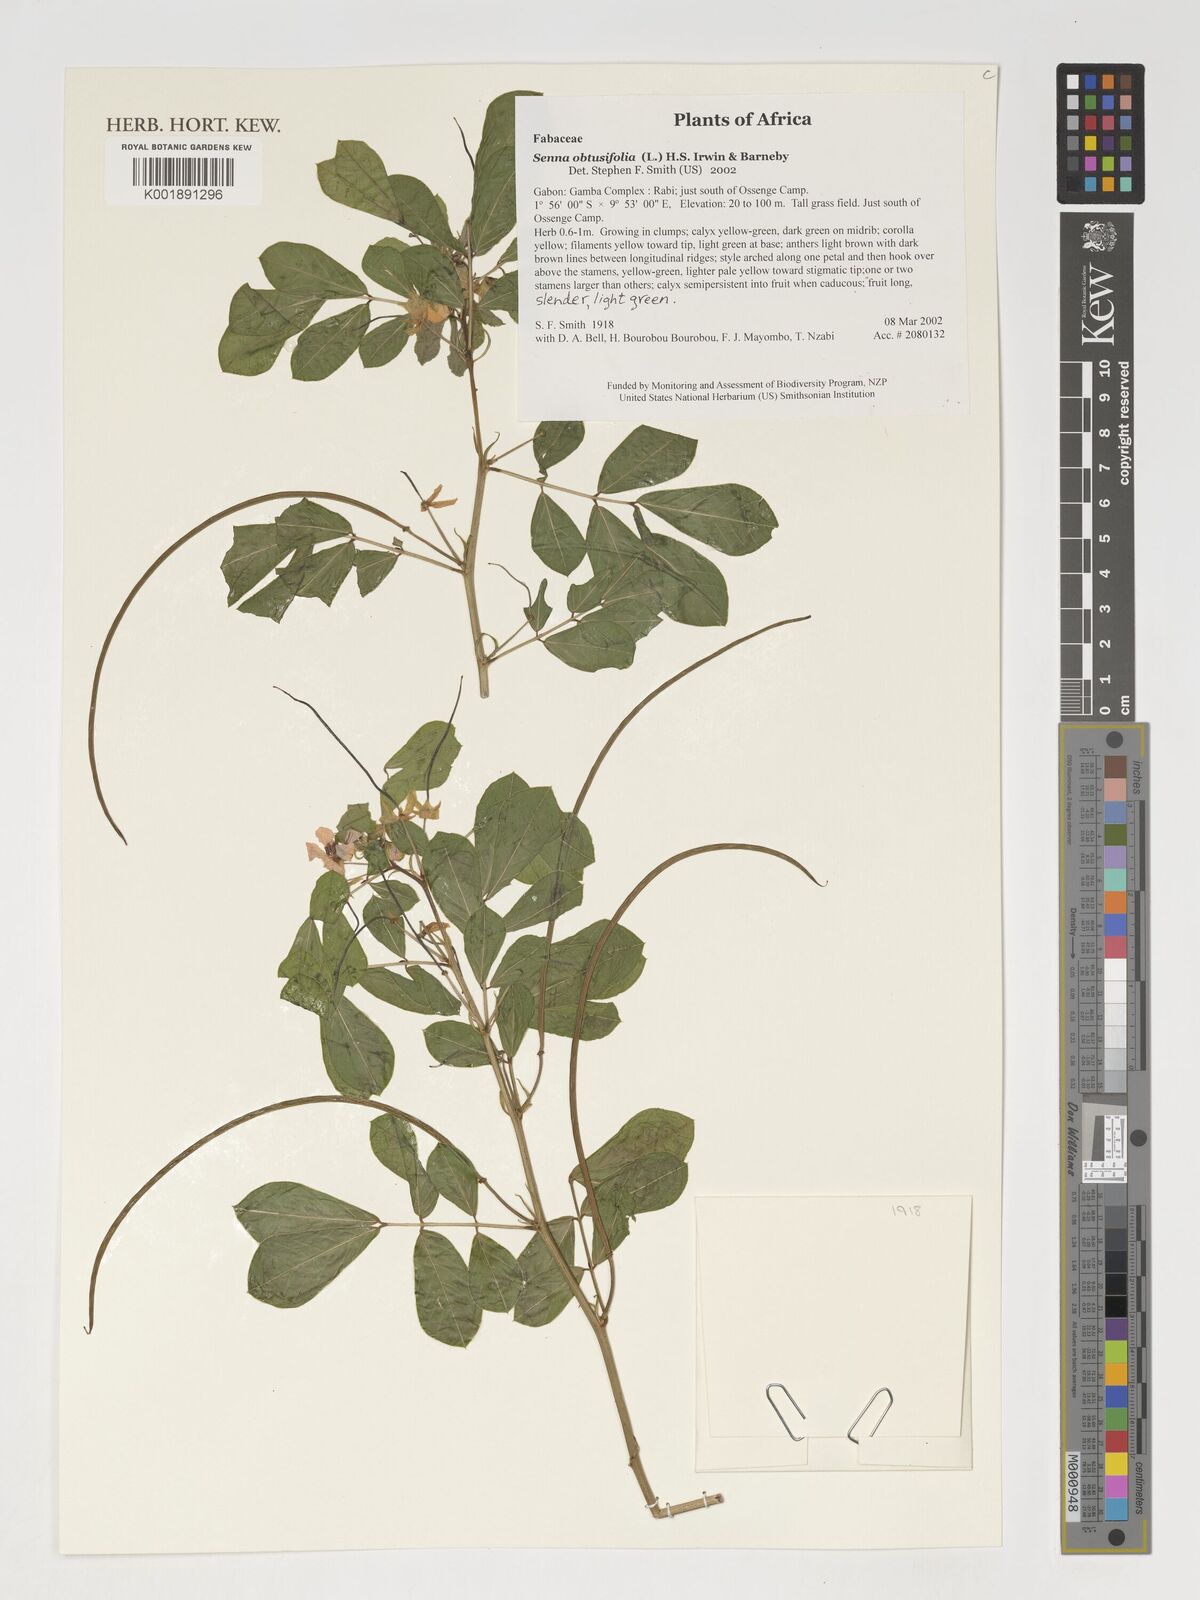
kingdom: Plantae
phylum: Tracheophyta
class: Magnoliopsida
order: Fabales
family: Fabaceae
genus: Senna
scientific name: Senna obtusifolia
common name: Java-bean
